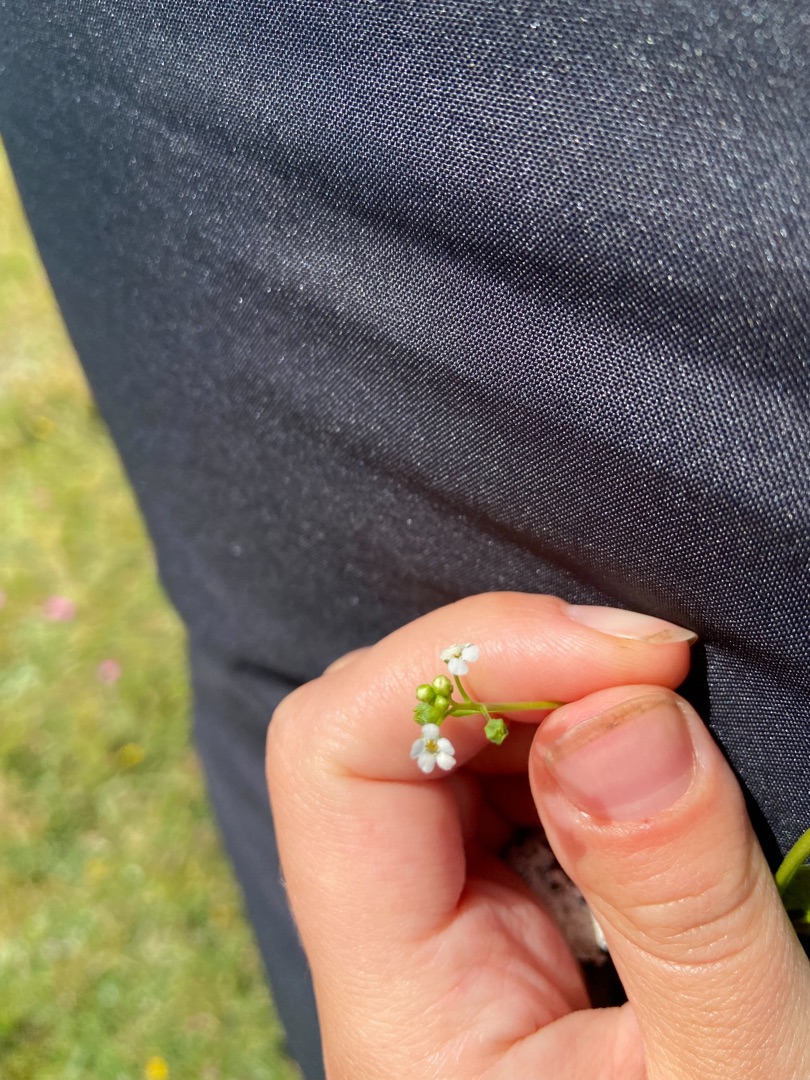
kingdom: Plantae
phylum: Tracheophyta
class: Magnoliopsida
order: Ericales
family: Primulaceae
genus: Samolus
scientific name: Samolus valerandi
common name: Samel
